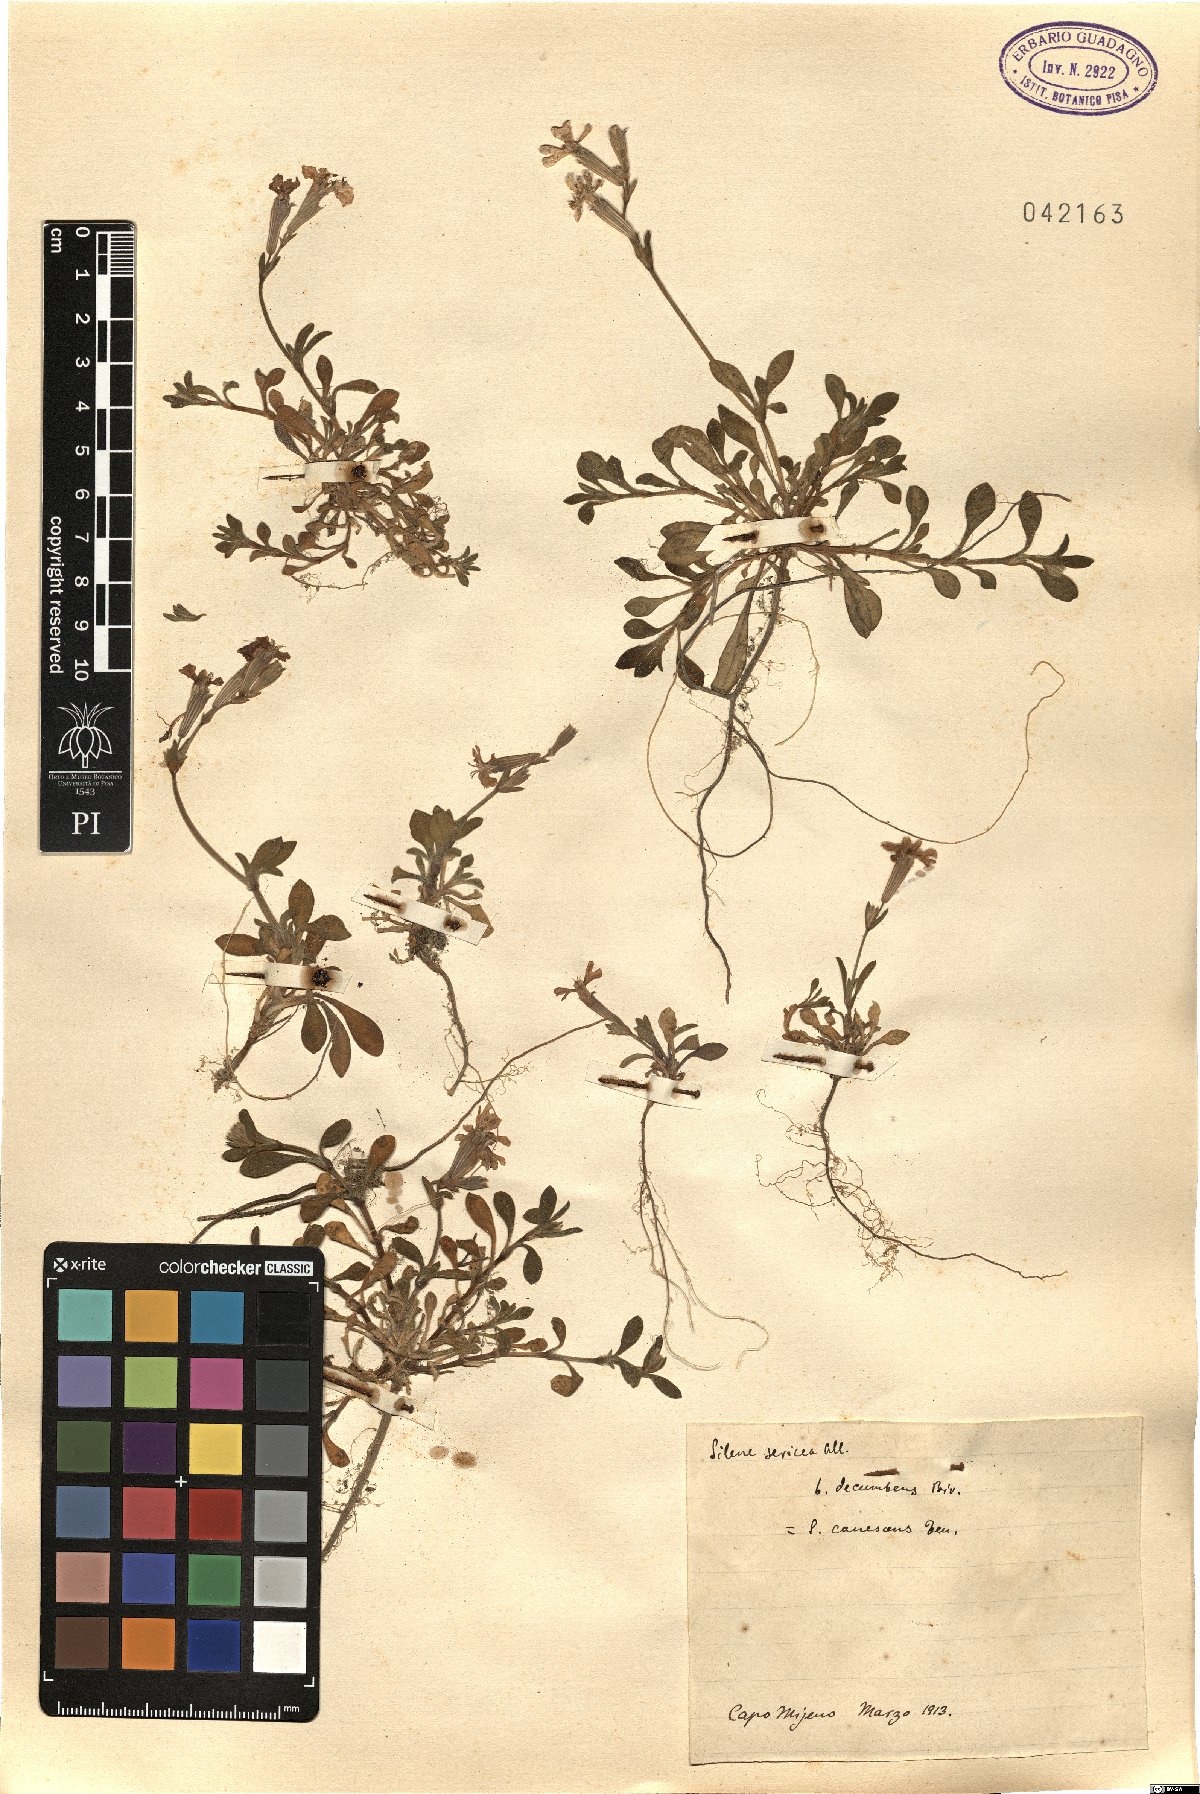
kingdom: Plantae
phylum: Tracheophyta
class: Magnoliopsida
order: Caryophyllales
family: Caryophyllaceae
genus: Silene
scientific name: Silene colorata
